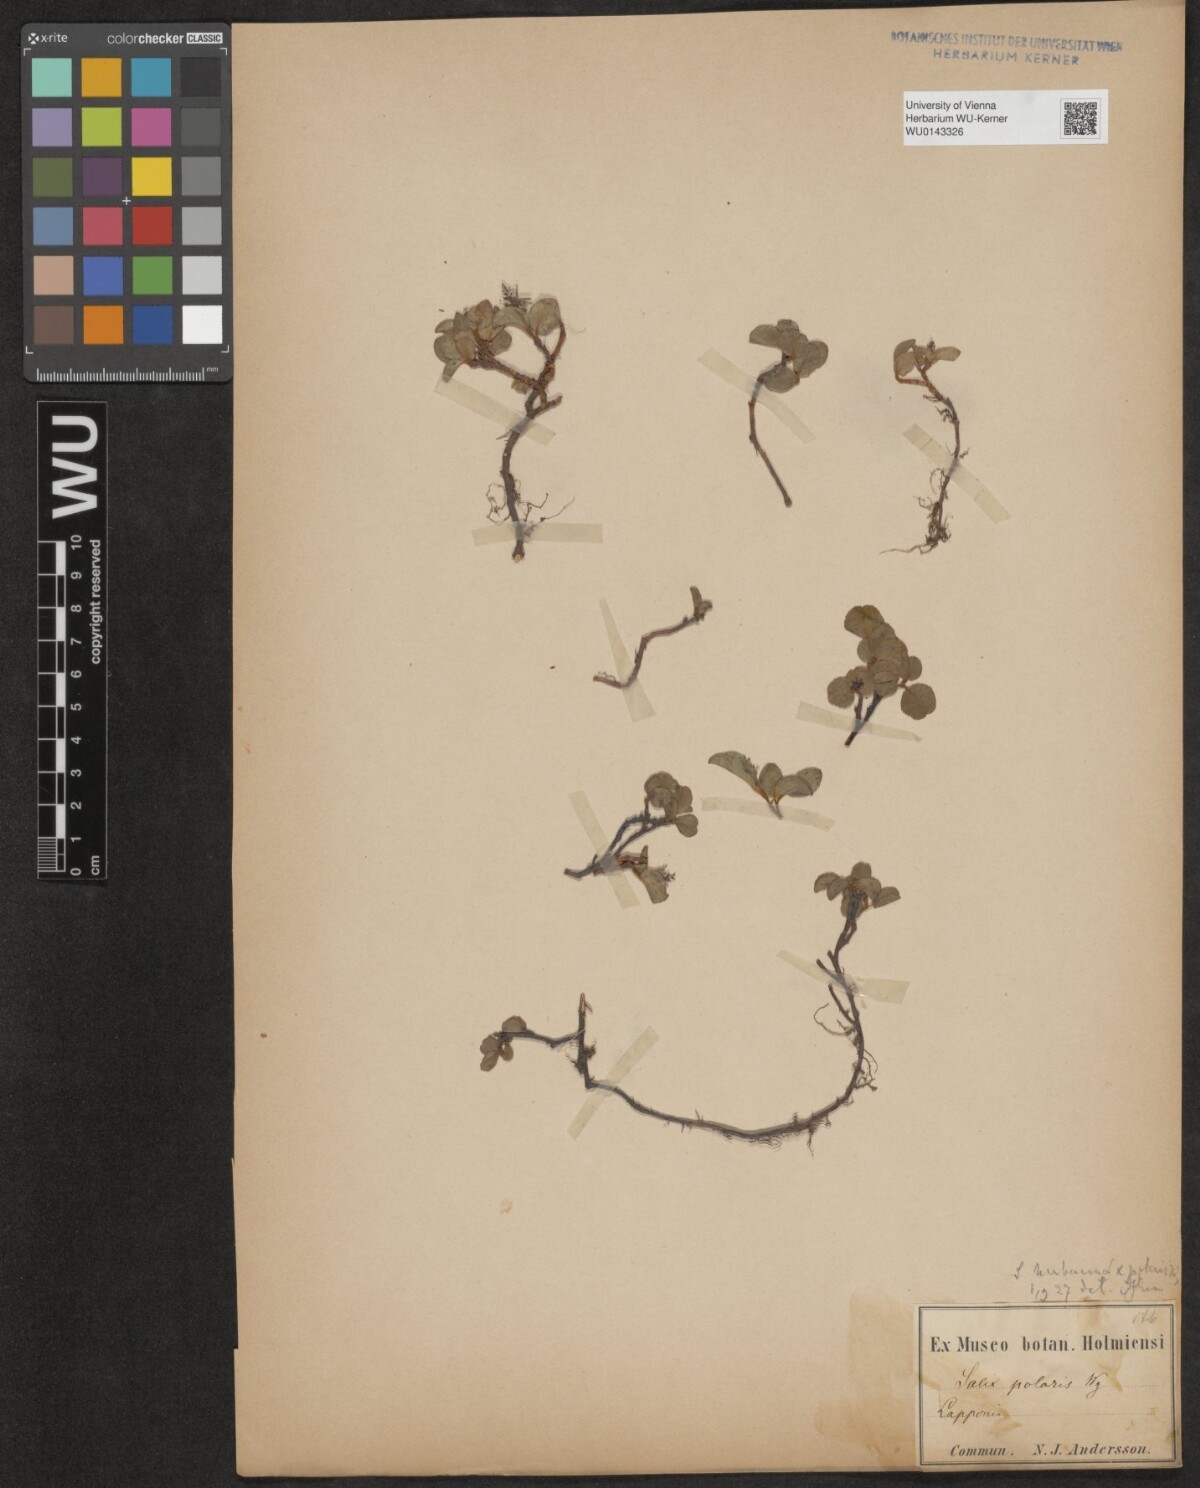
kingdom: Plantae
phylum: Tracheophyta
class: Magnoliopsida
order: Malpighiales
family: Salicaceae
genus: Salix
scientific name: Salix polaris
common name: Polar willow
